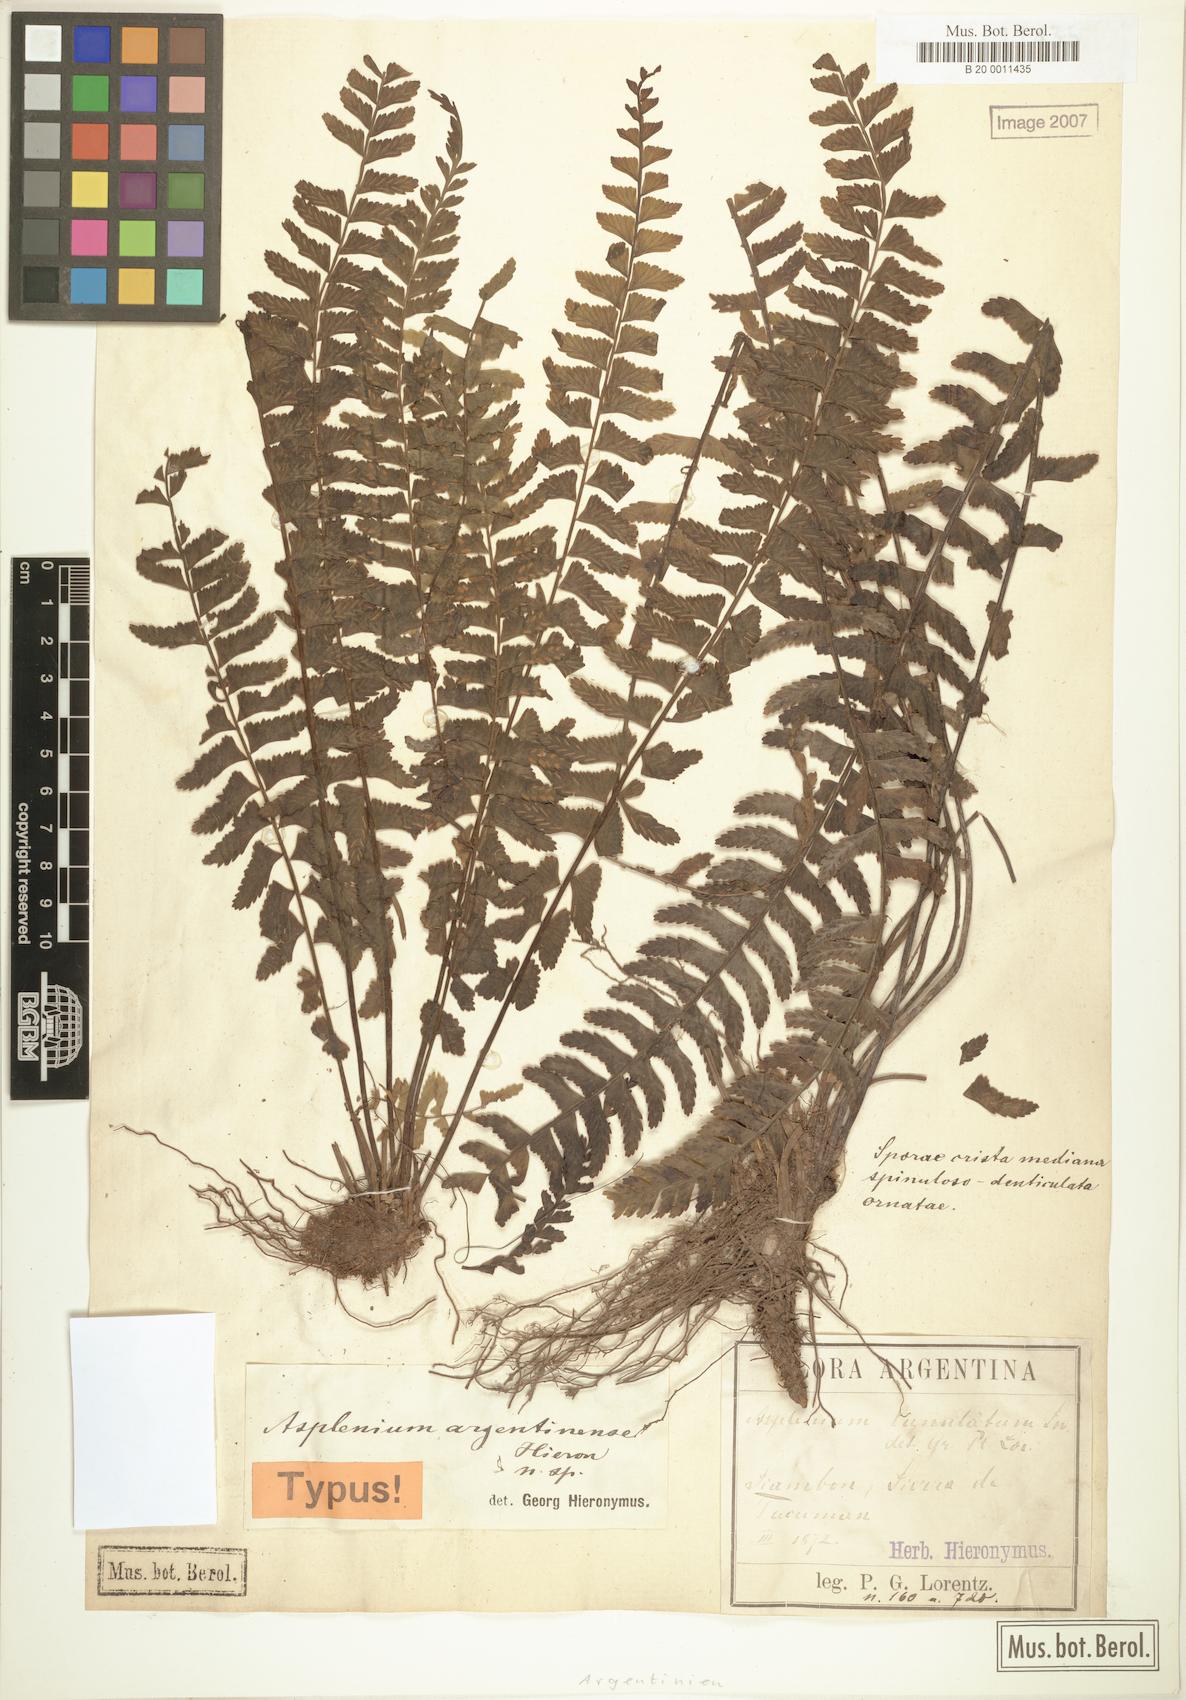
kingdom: Plantae
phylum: Tracheophyta
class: Polypodiopsida
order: Polypodiales
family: Aspleniaceae
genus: Asplenium
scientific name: Asplenium argentinum
